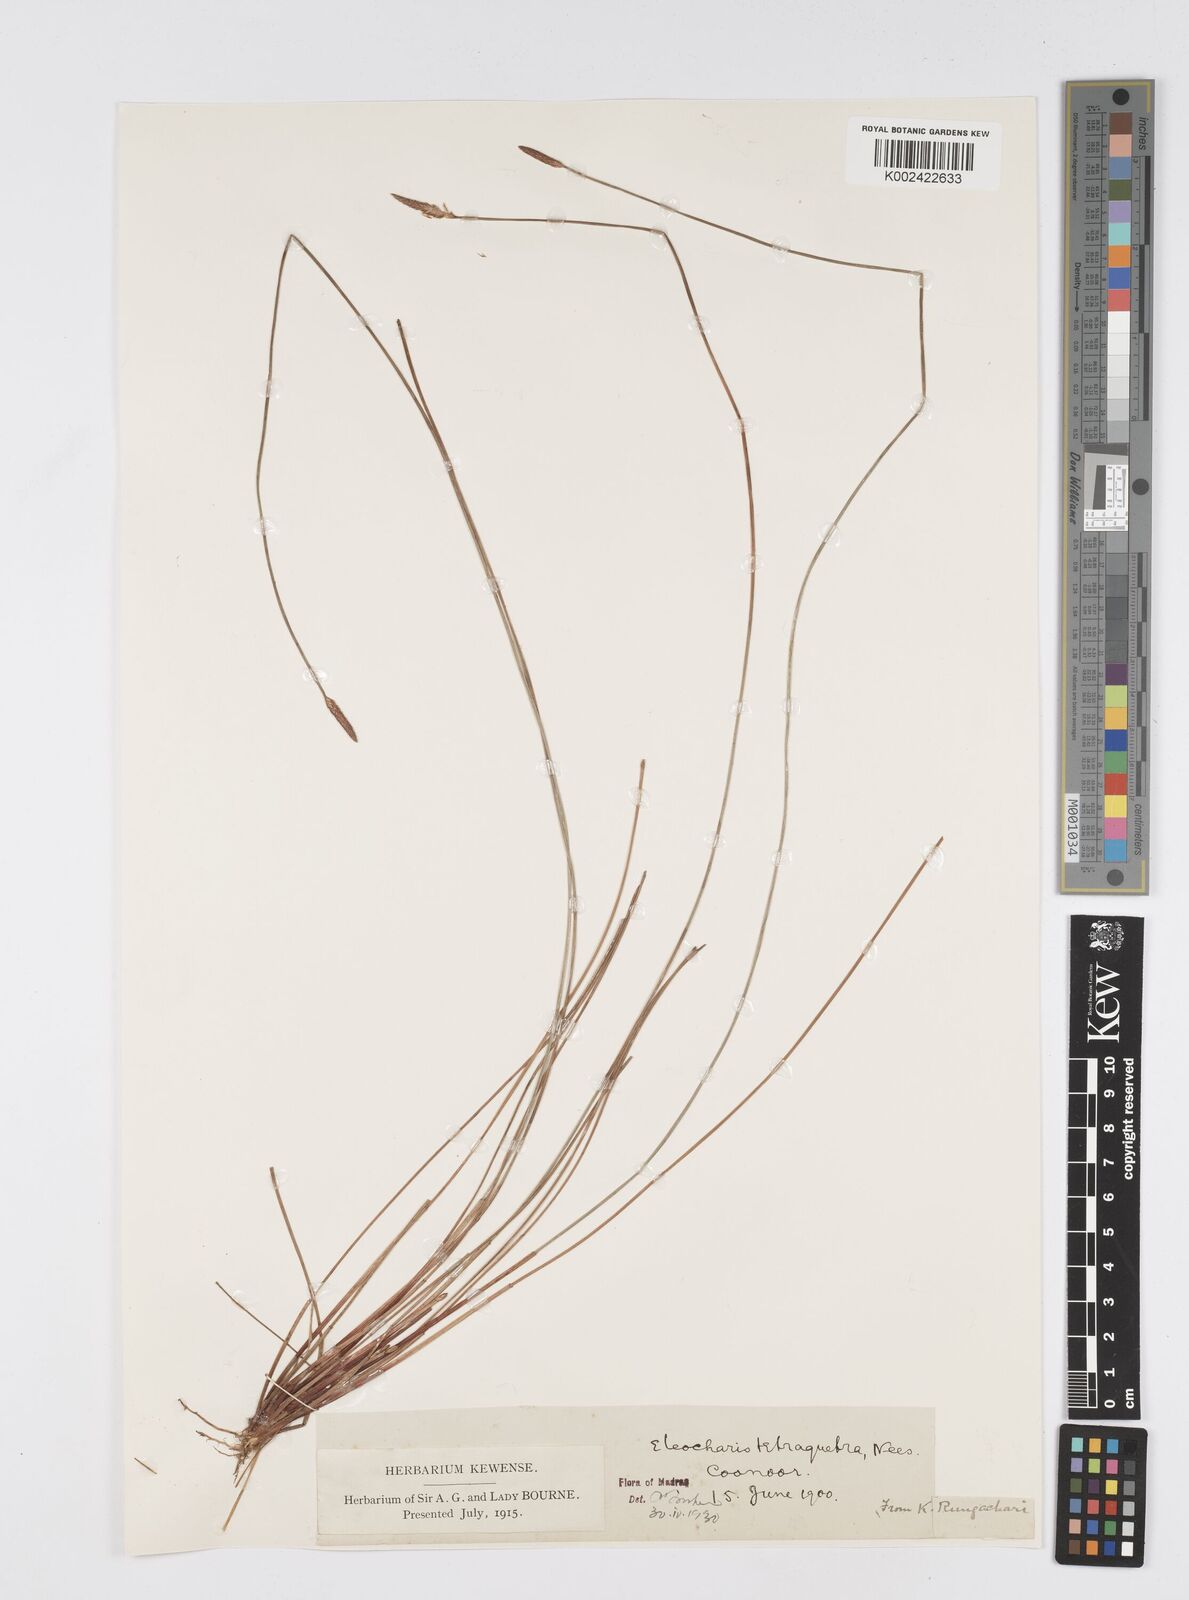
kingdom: Plantae
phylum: Tracheophyta
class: Liliopsida
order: Poales
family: Cyperaceae
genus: Eleocharis
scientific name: Eleocharis tetraquetra
